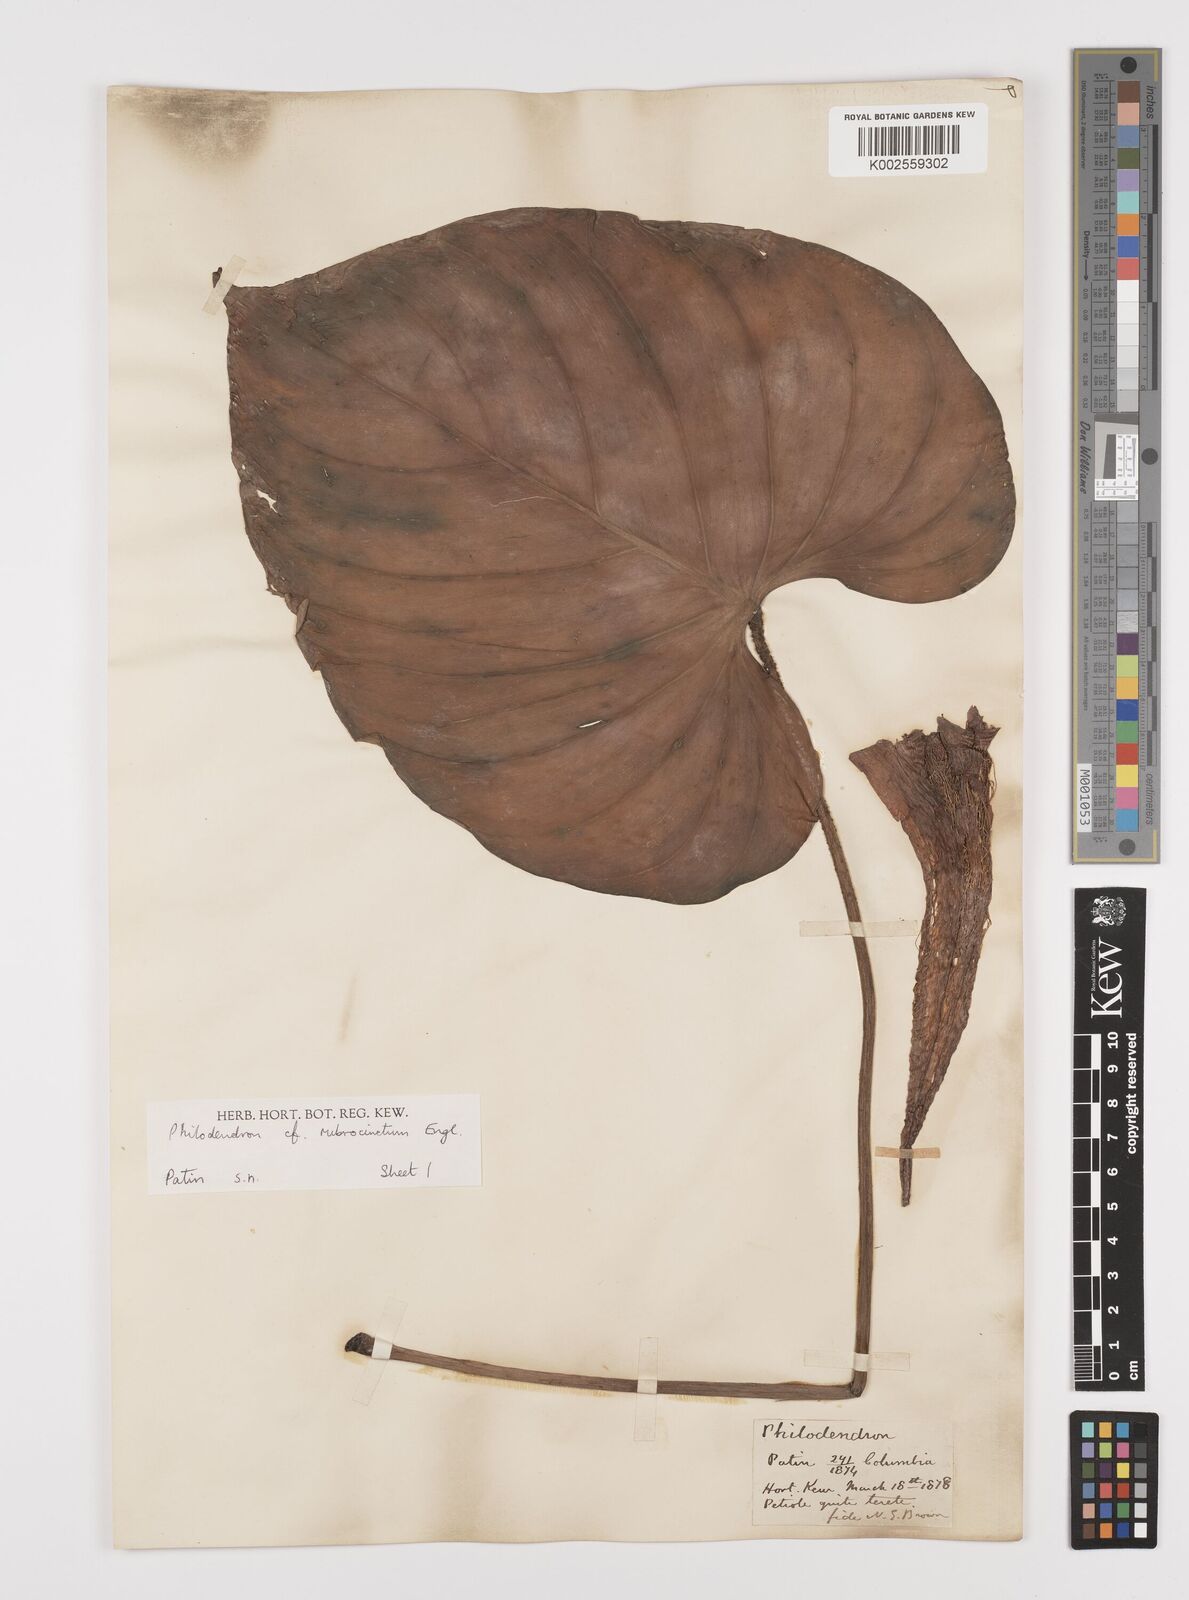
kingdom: Plantae
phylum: Tracheophyta
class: Liliopsida
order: Alismatales
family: Araceae
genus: Philodendron
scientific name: Philodendron rubrocinctum
